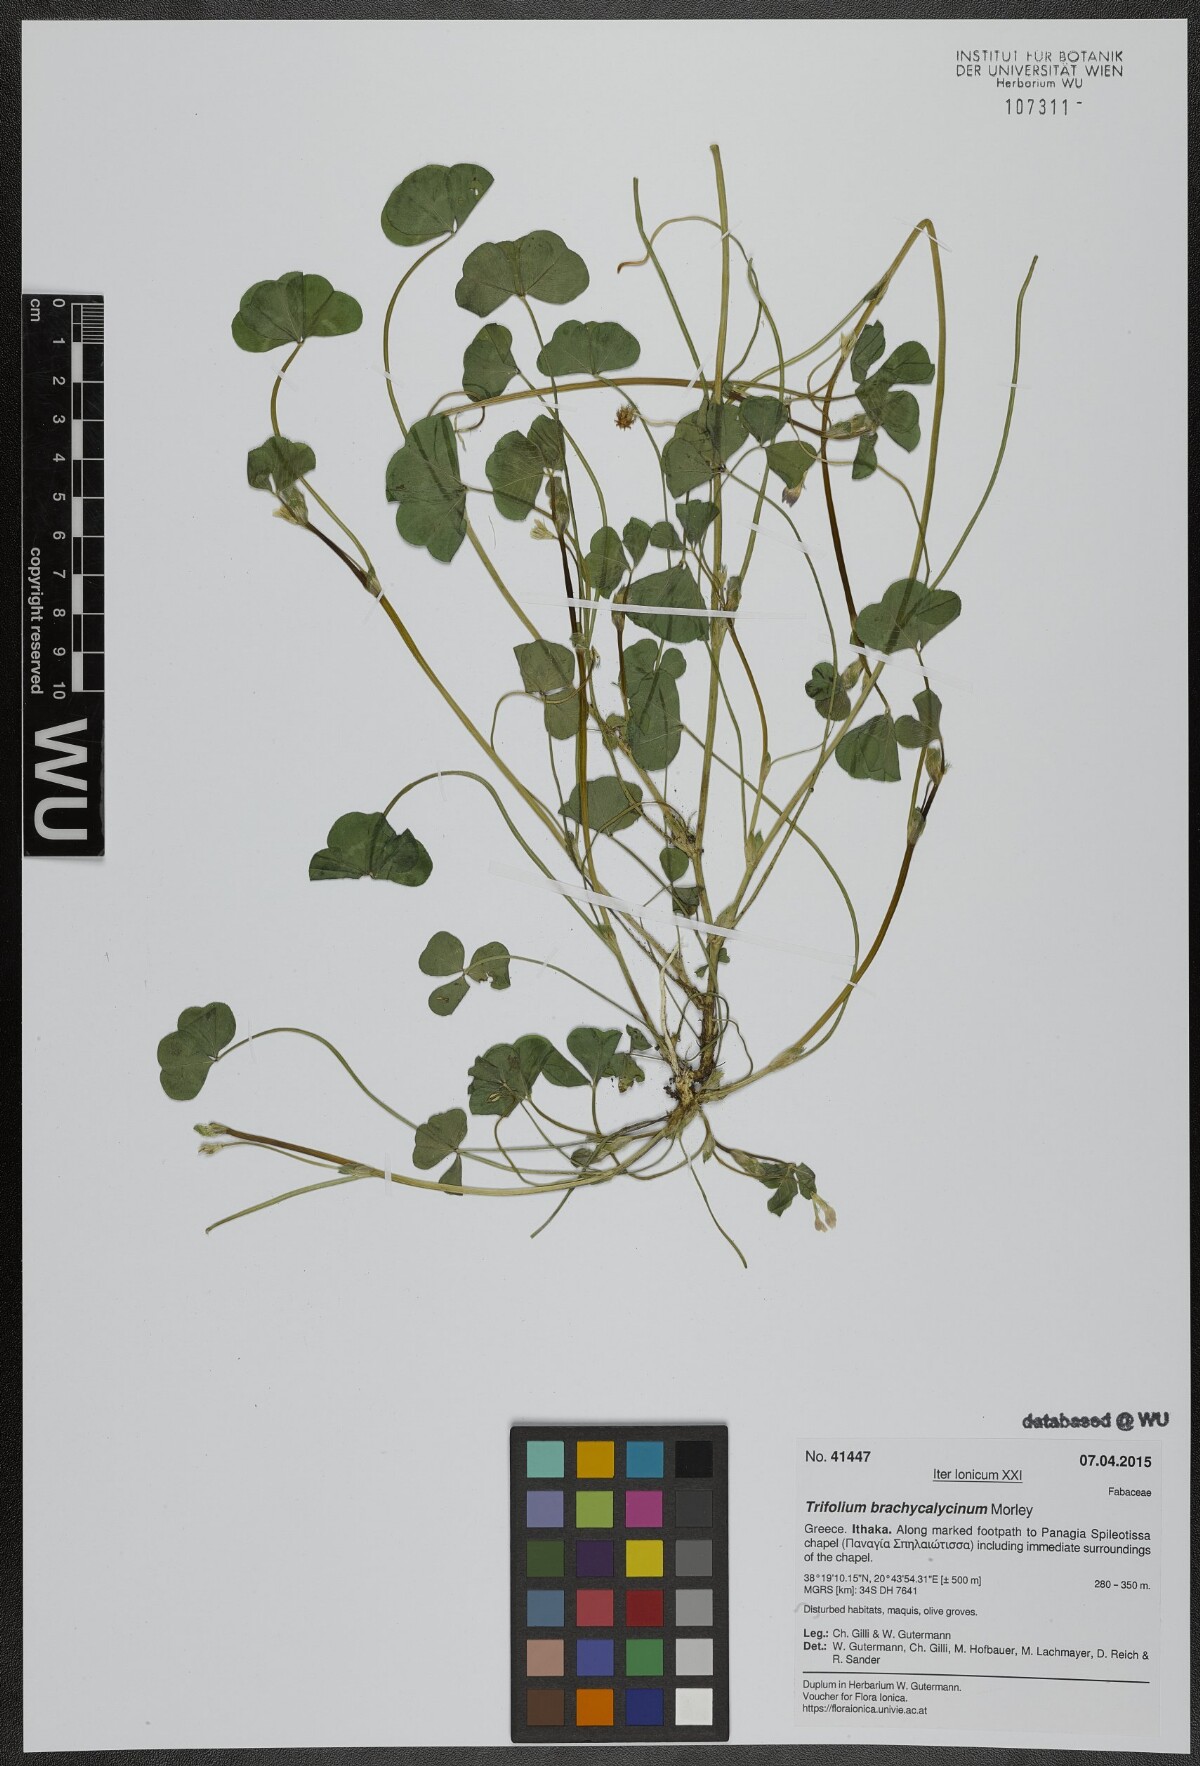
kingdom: Plantae
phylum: Tracheophyta
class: Magnoliopsida
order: Fabales
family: Fabaceae
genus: Trifolium
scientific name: Trifolium subterraneum
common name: Subterranean clover
